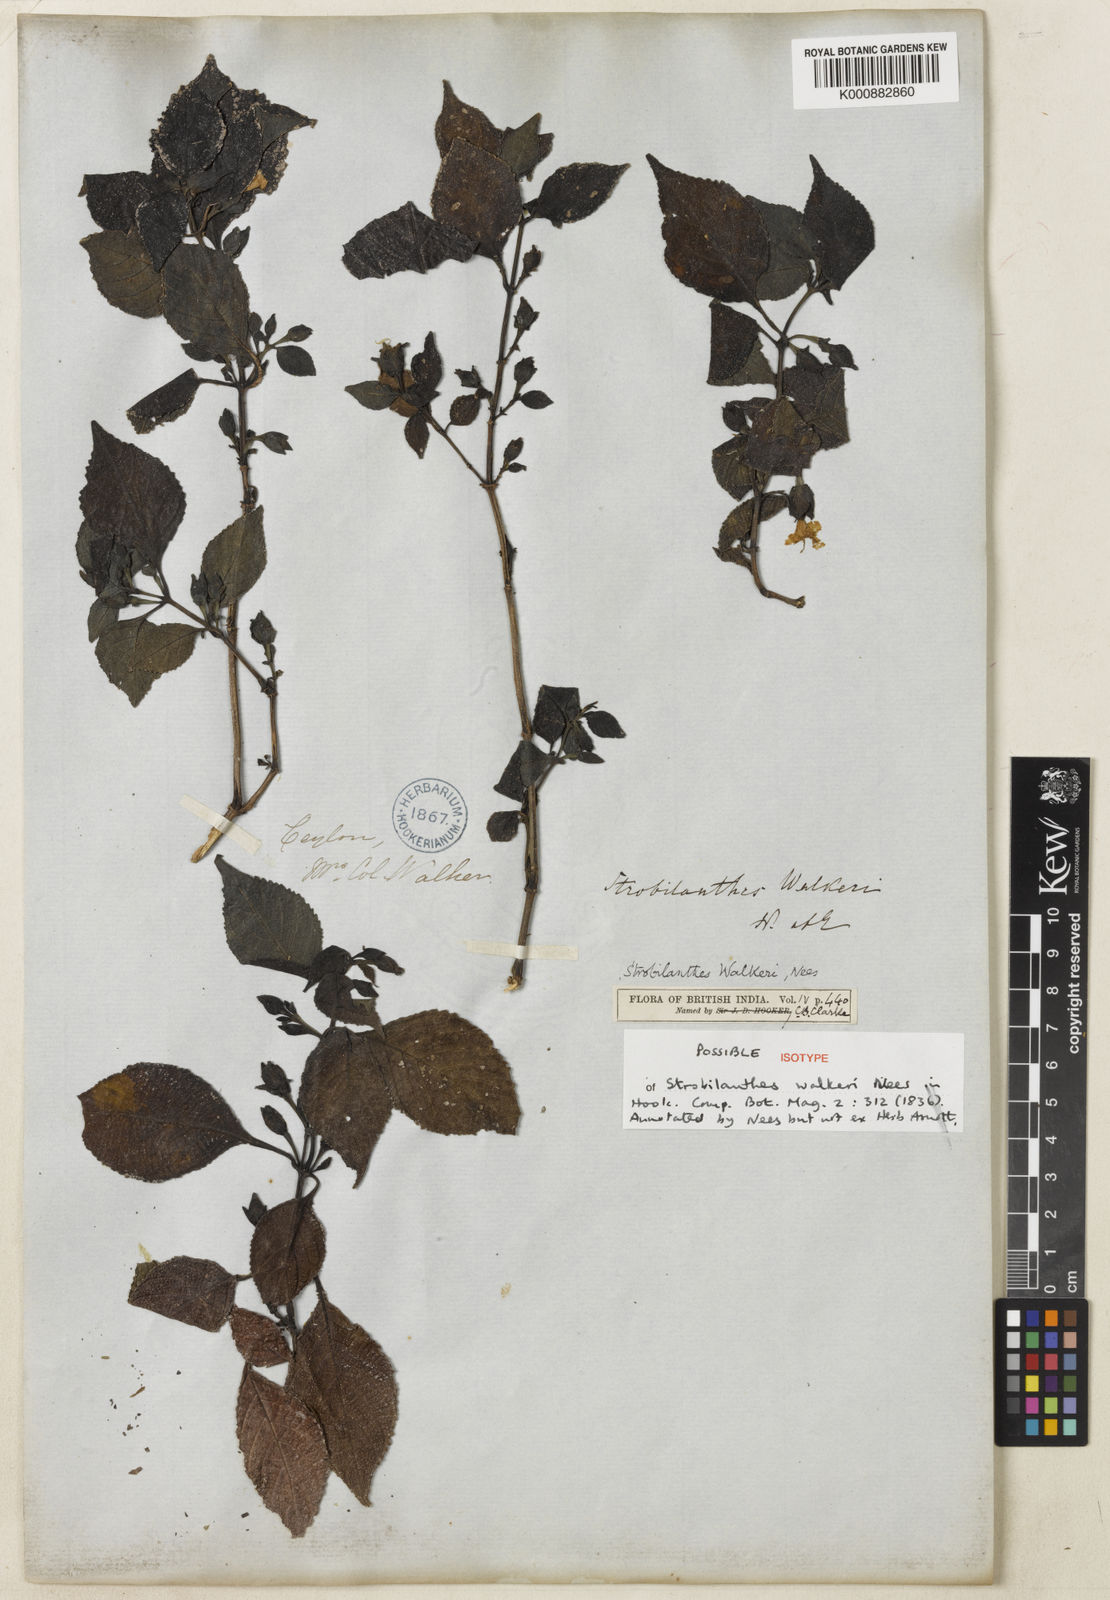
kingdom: Plantae
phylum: Tracheophyta
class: Magnoliopsida
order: Lamiales
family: Acanthaceae
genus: Strobilanthes
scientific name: Strobilanthes walkeri
